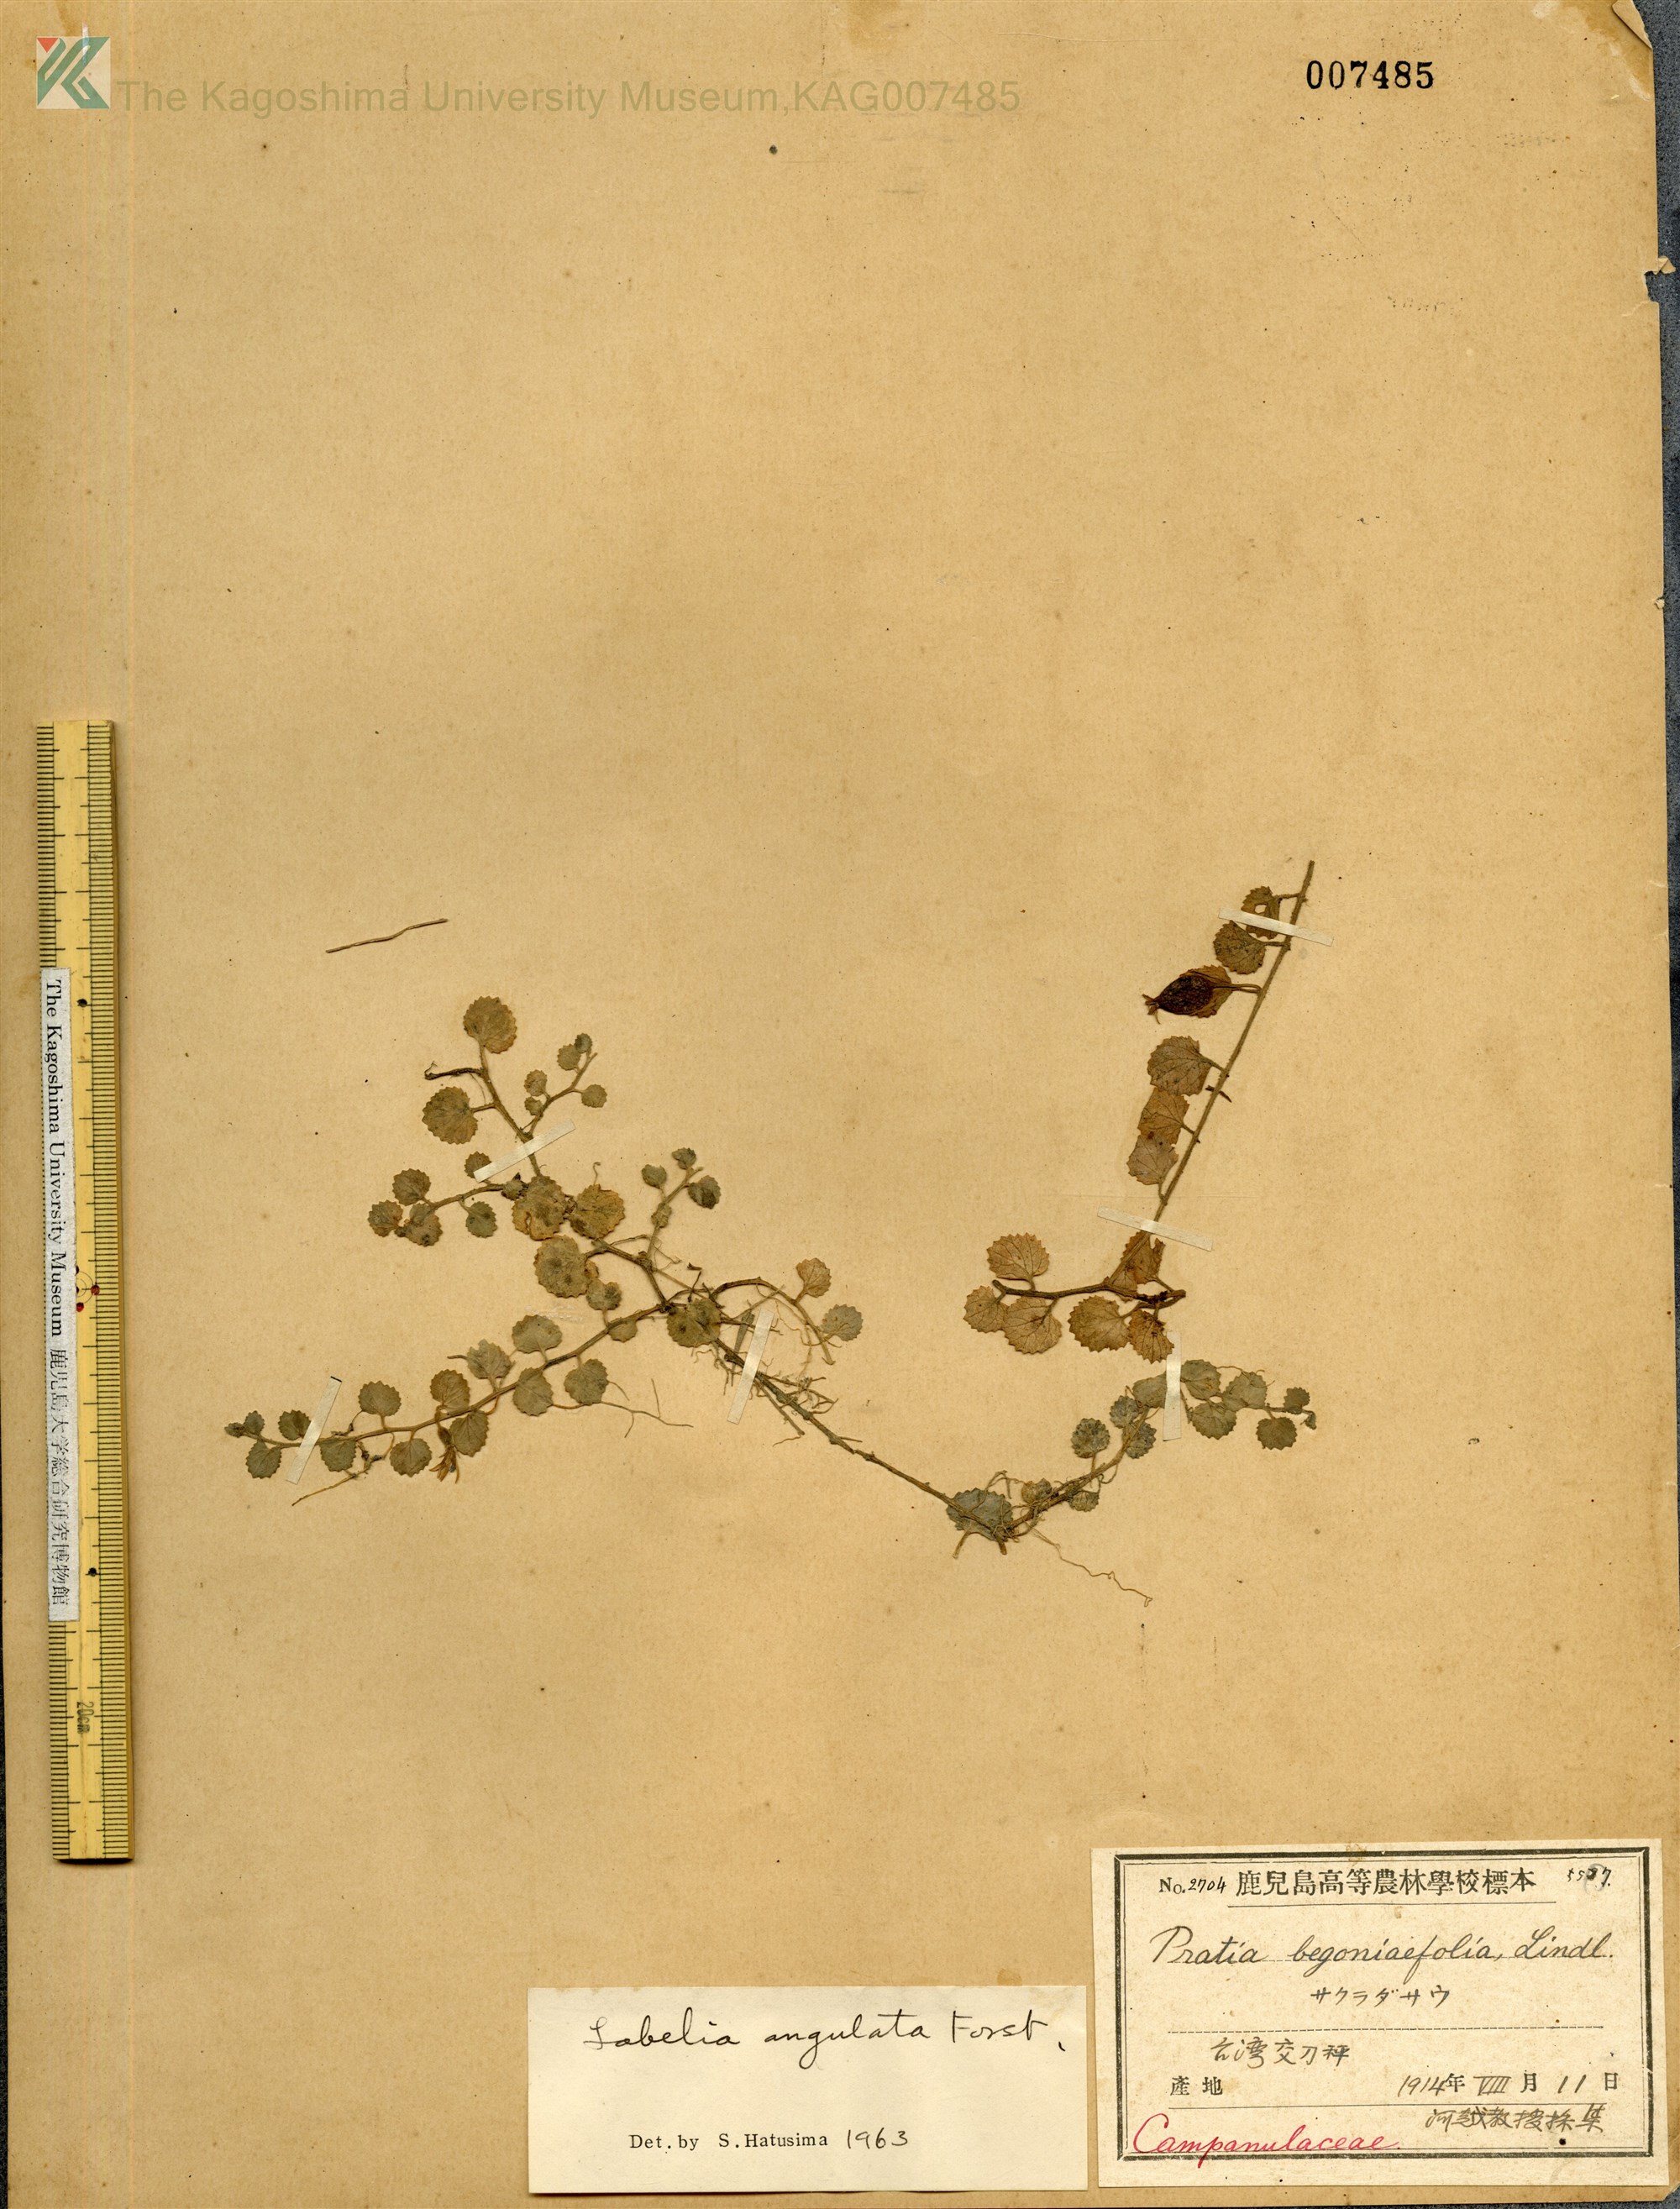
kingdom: Plantae
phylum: Tracheophyta
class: Magnoliopsida
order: Asterales
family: Campanulaceae
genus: Lobelia
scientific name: Lobelia angulata
